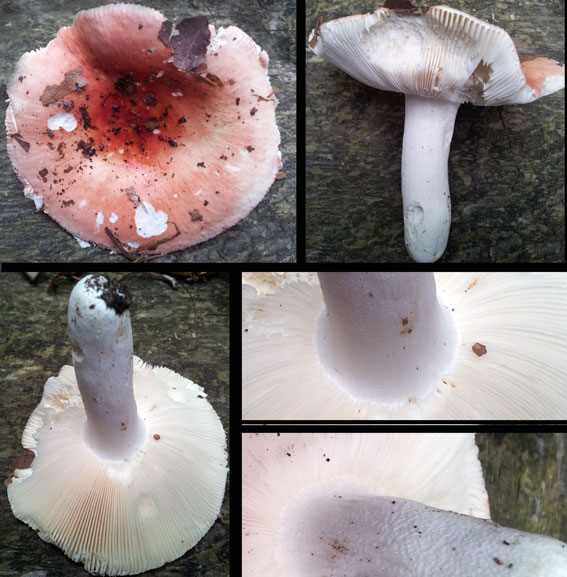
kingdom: Fungi
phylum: Basidiomycota
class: Agaricomycetes
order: Russulales
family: Russulaceae
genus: Russula
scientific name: Russula aurora
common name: rosa skørhat
